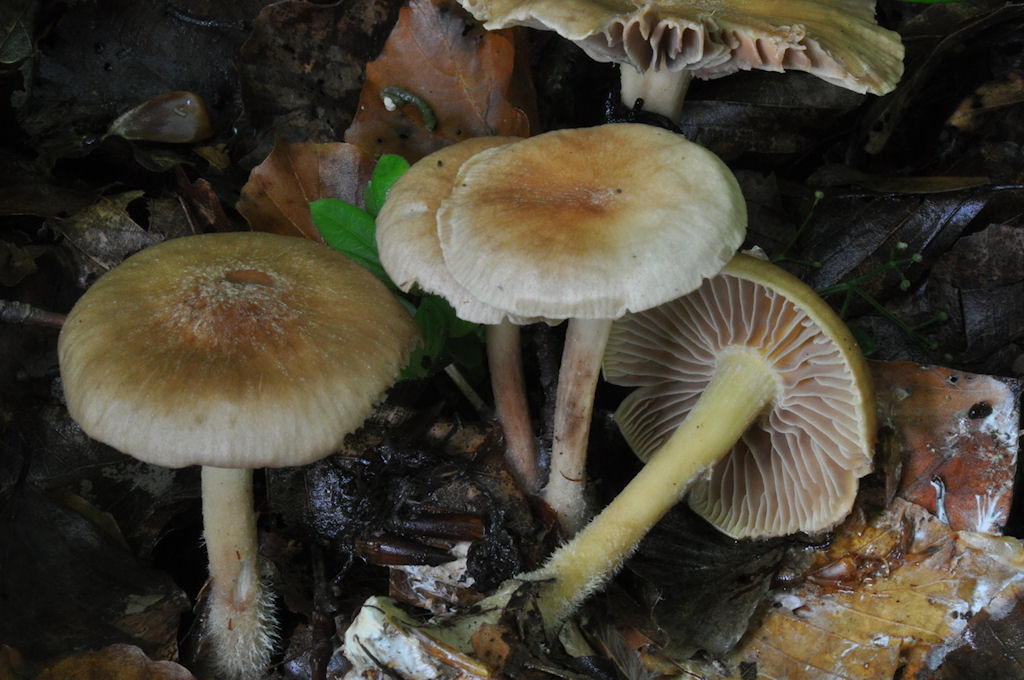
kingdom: Fungi
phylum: Basidiomycota
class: Agaricomycetes
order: Agaricales
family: Omphalotaceae
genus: Collybiopsis
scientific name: Collybiopsis peronata
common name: bestøvlet fladhat
